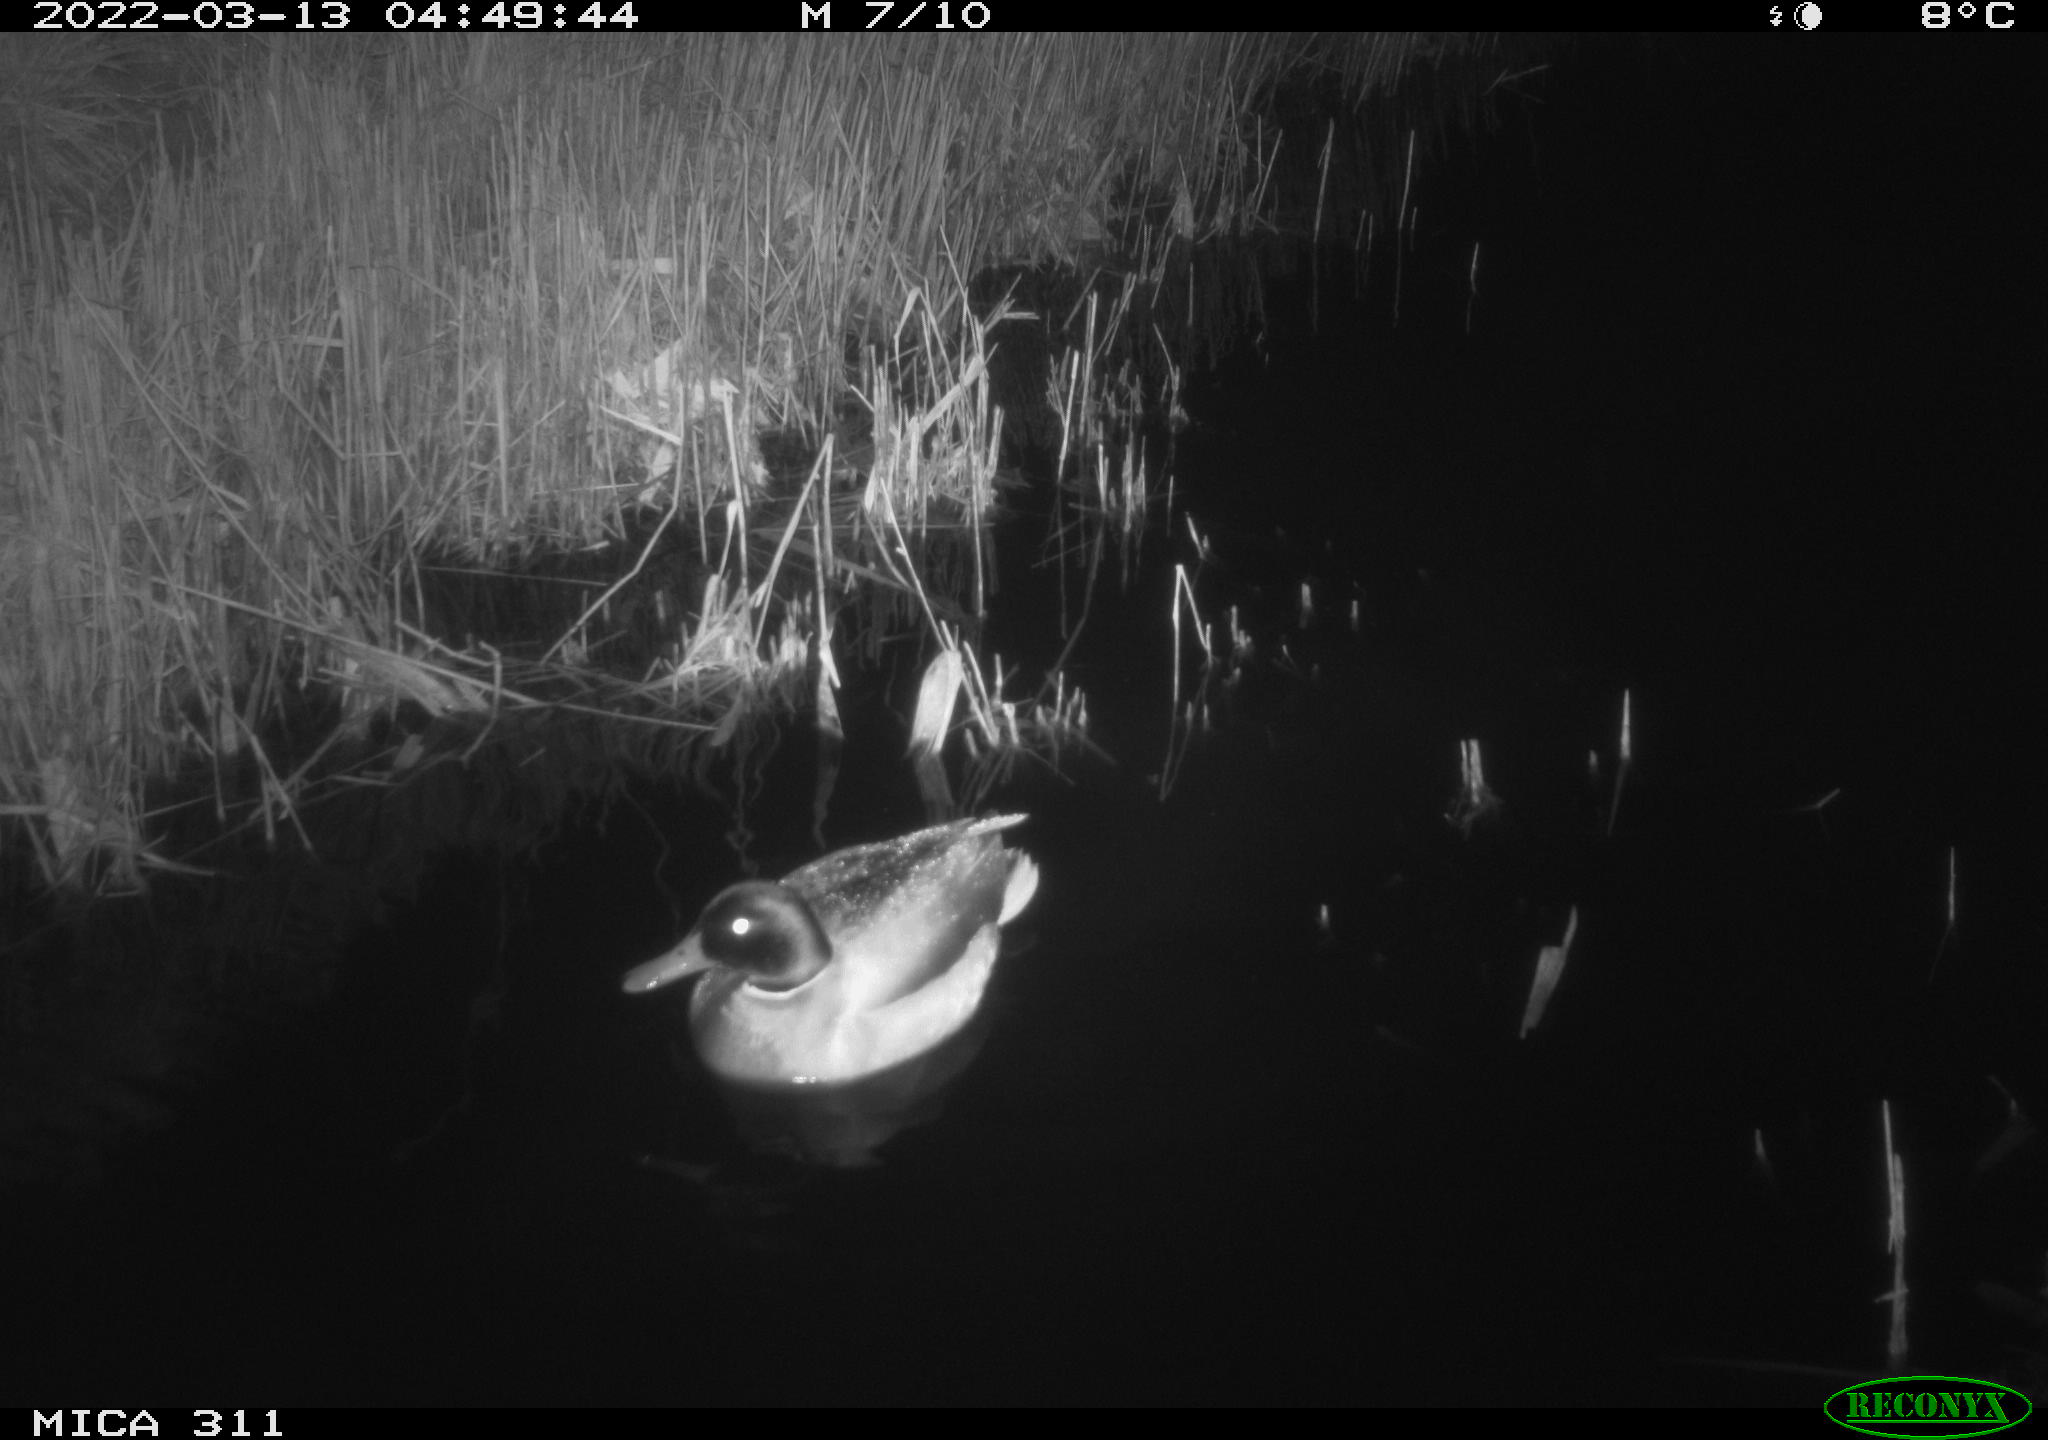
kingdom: Animalia
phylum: Chordata
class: Aves
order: Anseriformes
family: Anatidae
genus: Anas
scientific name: Anas platyrhynchos
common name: Mallard
